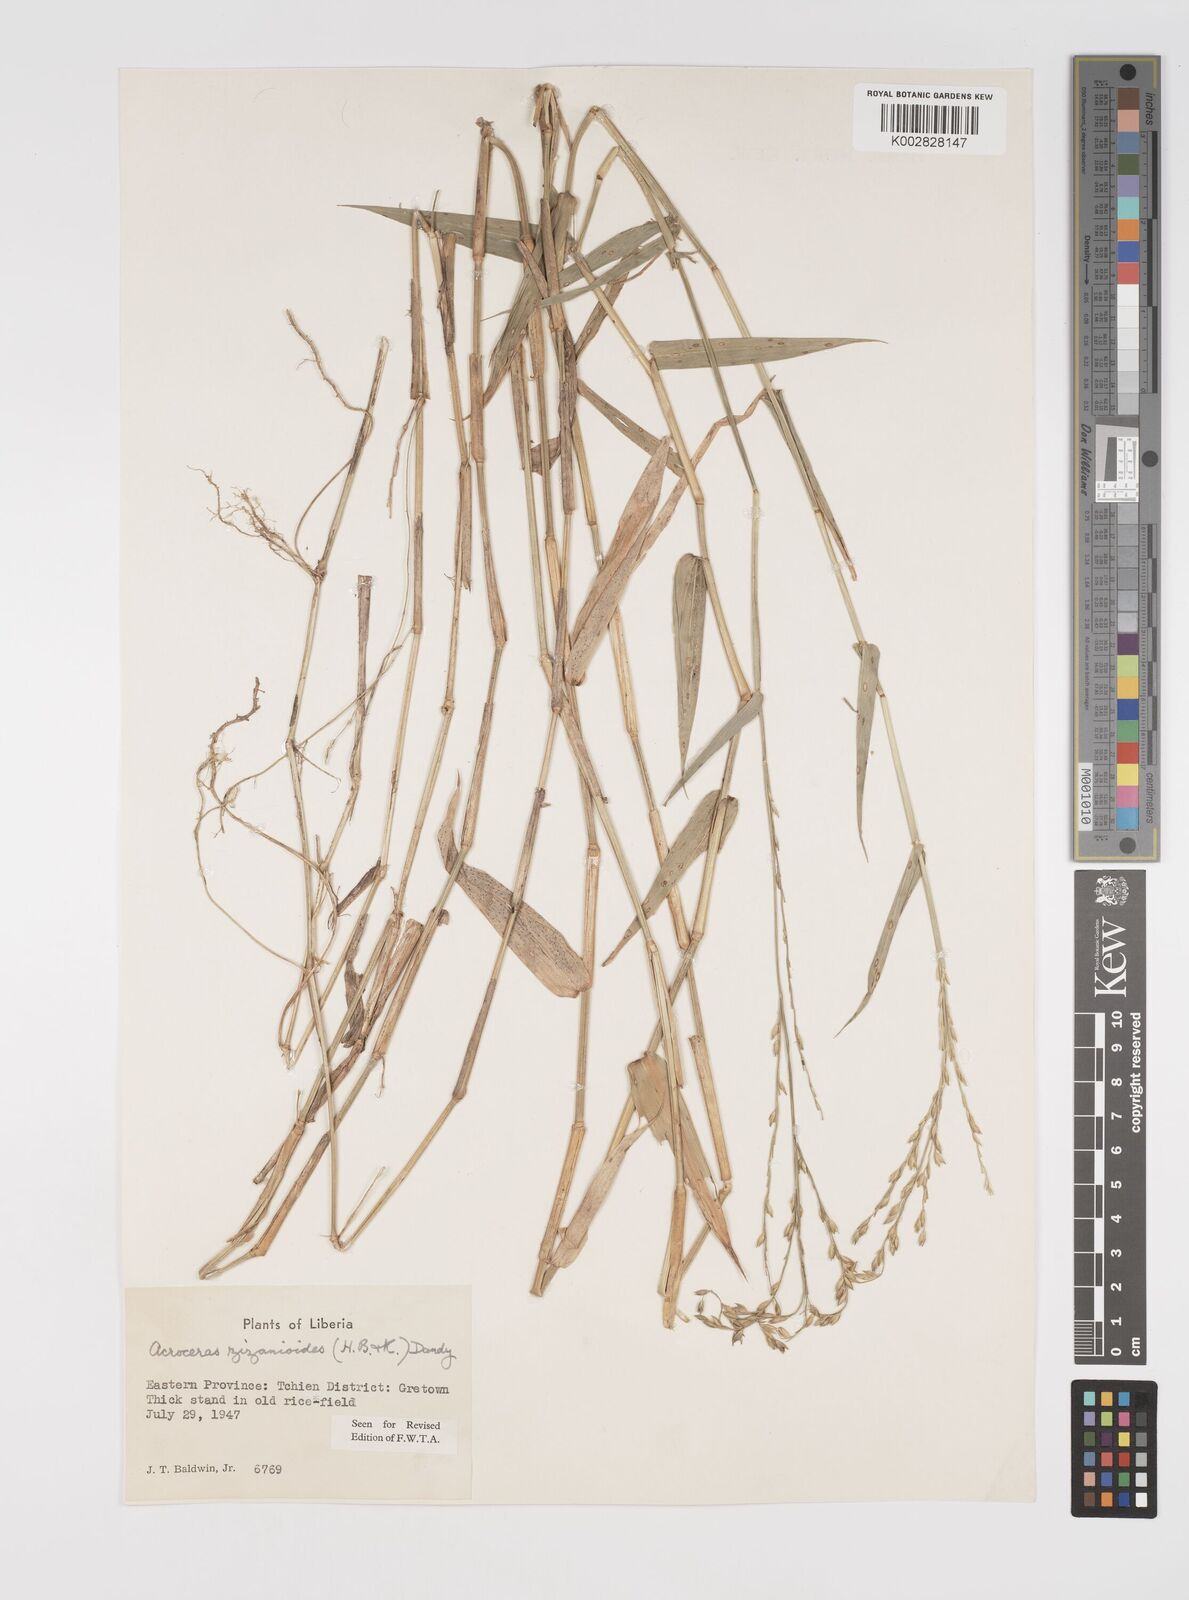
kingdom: Plantae
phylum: Tracheophyta
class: Liliopsida
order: Poales
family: Poaceae
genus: Acroceras
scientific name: Acroceras zizanioides
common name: Oat grass
